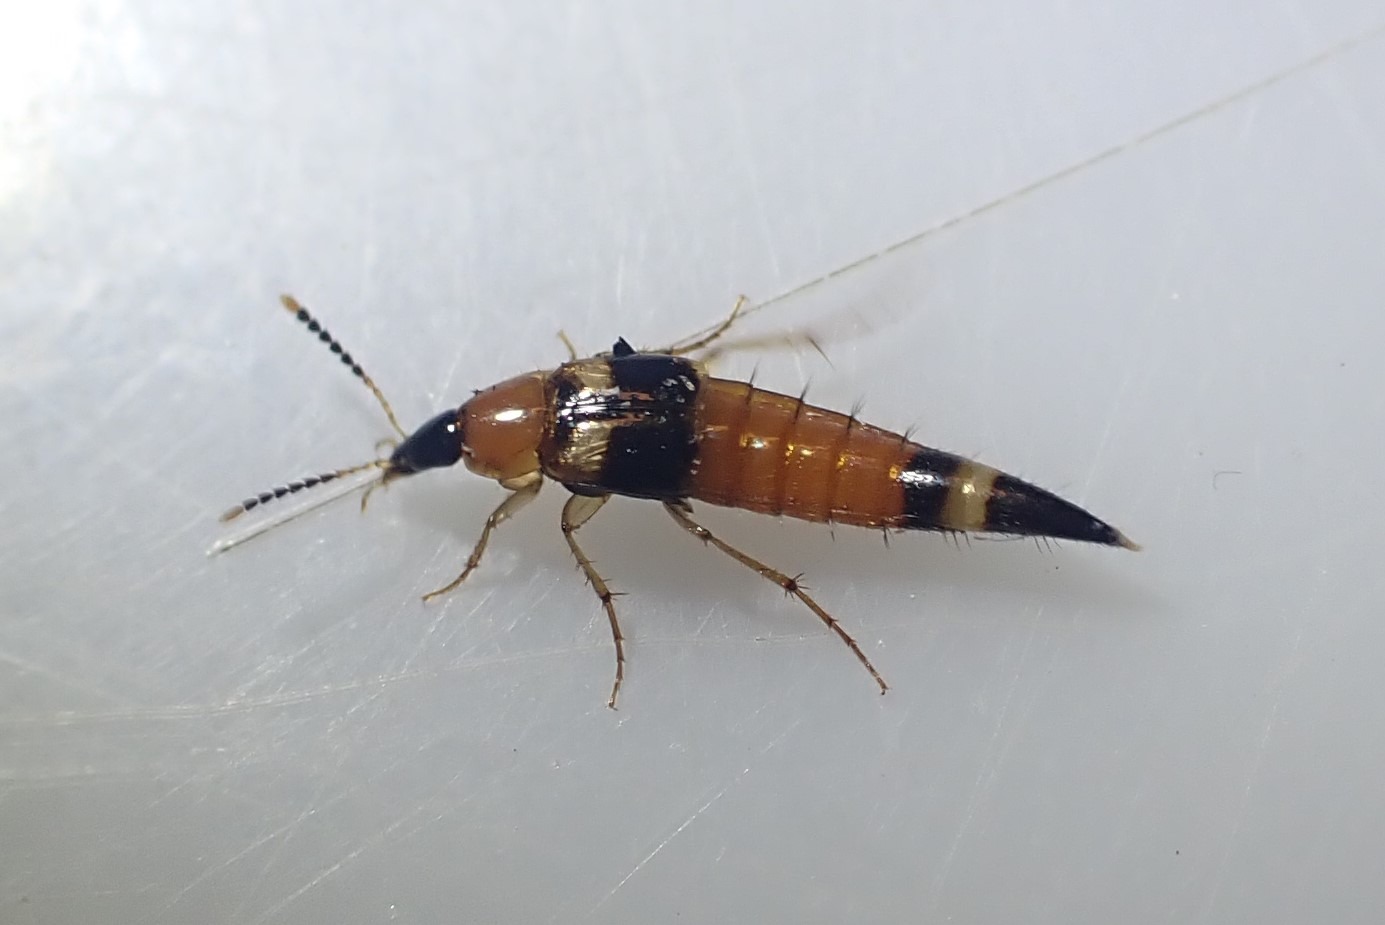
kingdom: Animalia
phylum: Arthropoda
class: Insecta
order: Coleoptera
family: Staphylinidae
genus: Bobitobus
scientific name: Bobitobus lunulatus
